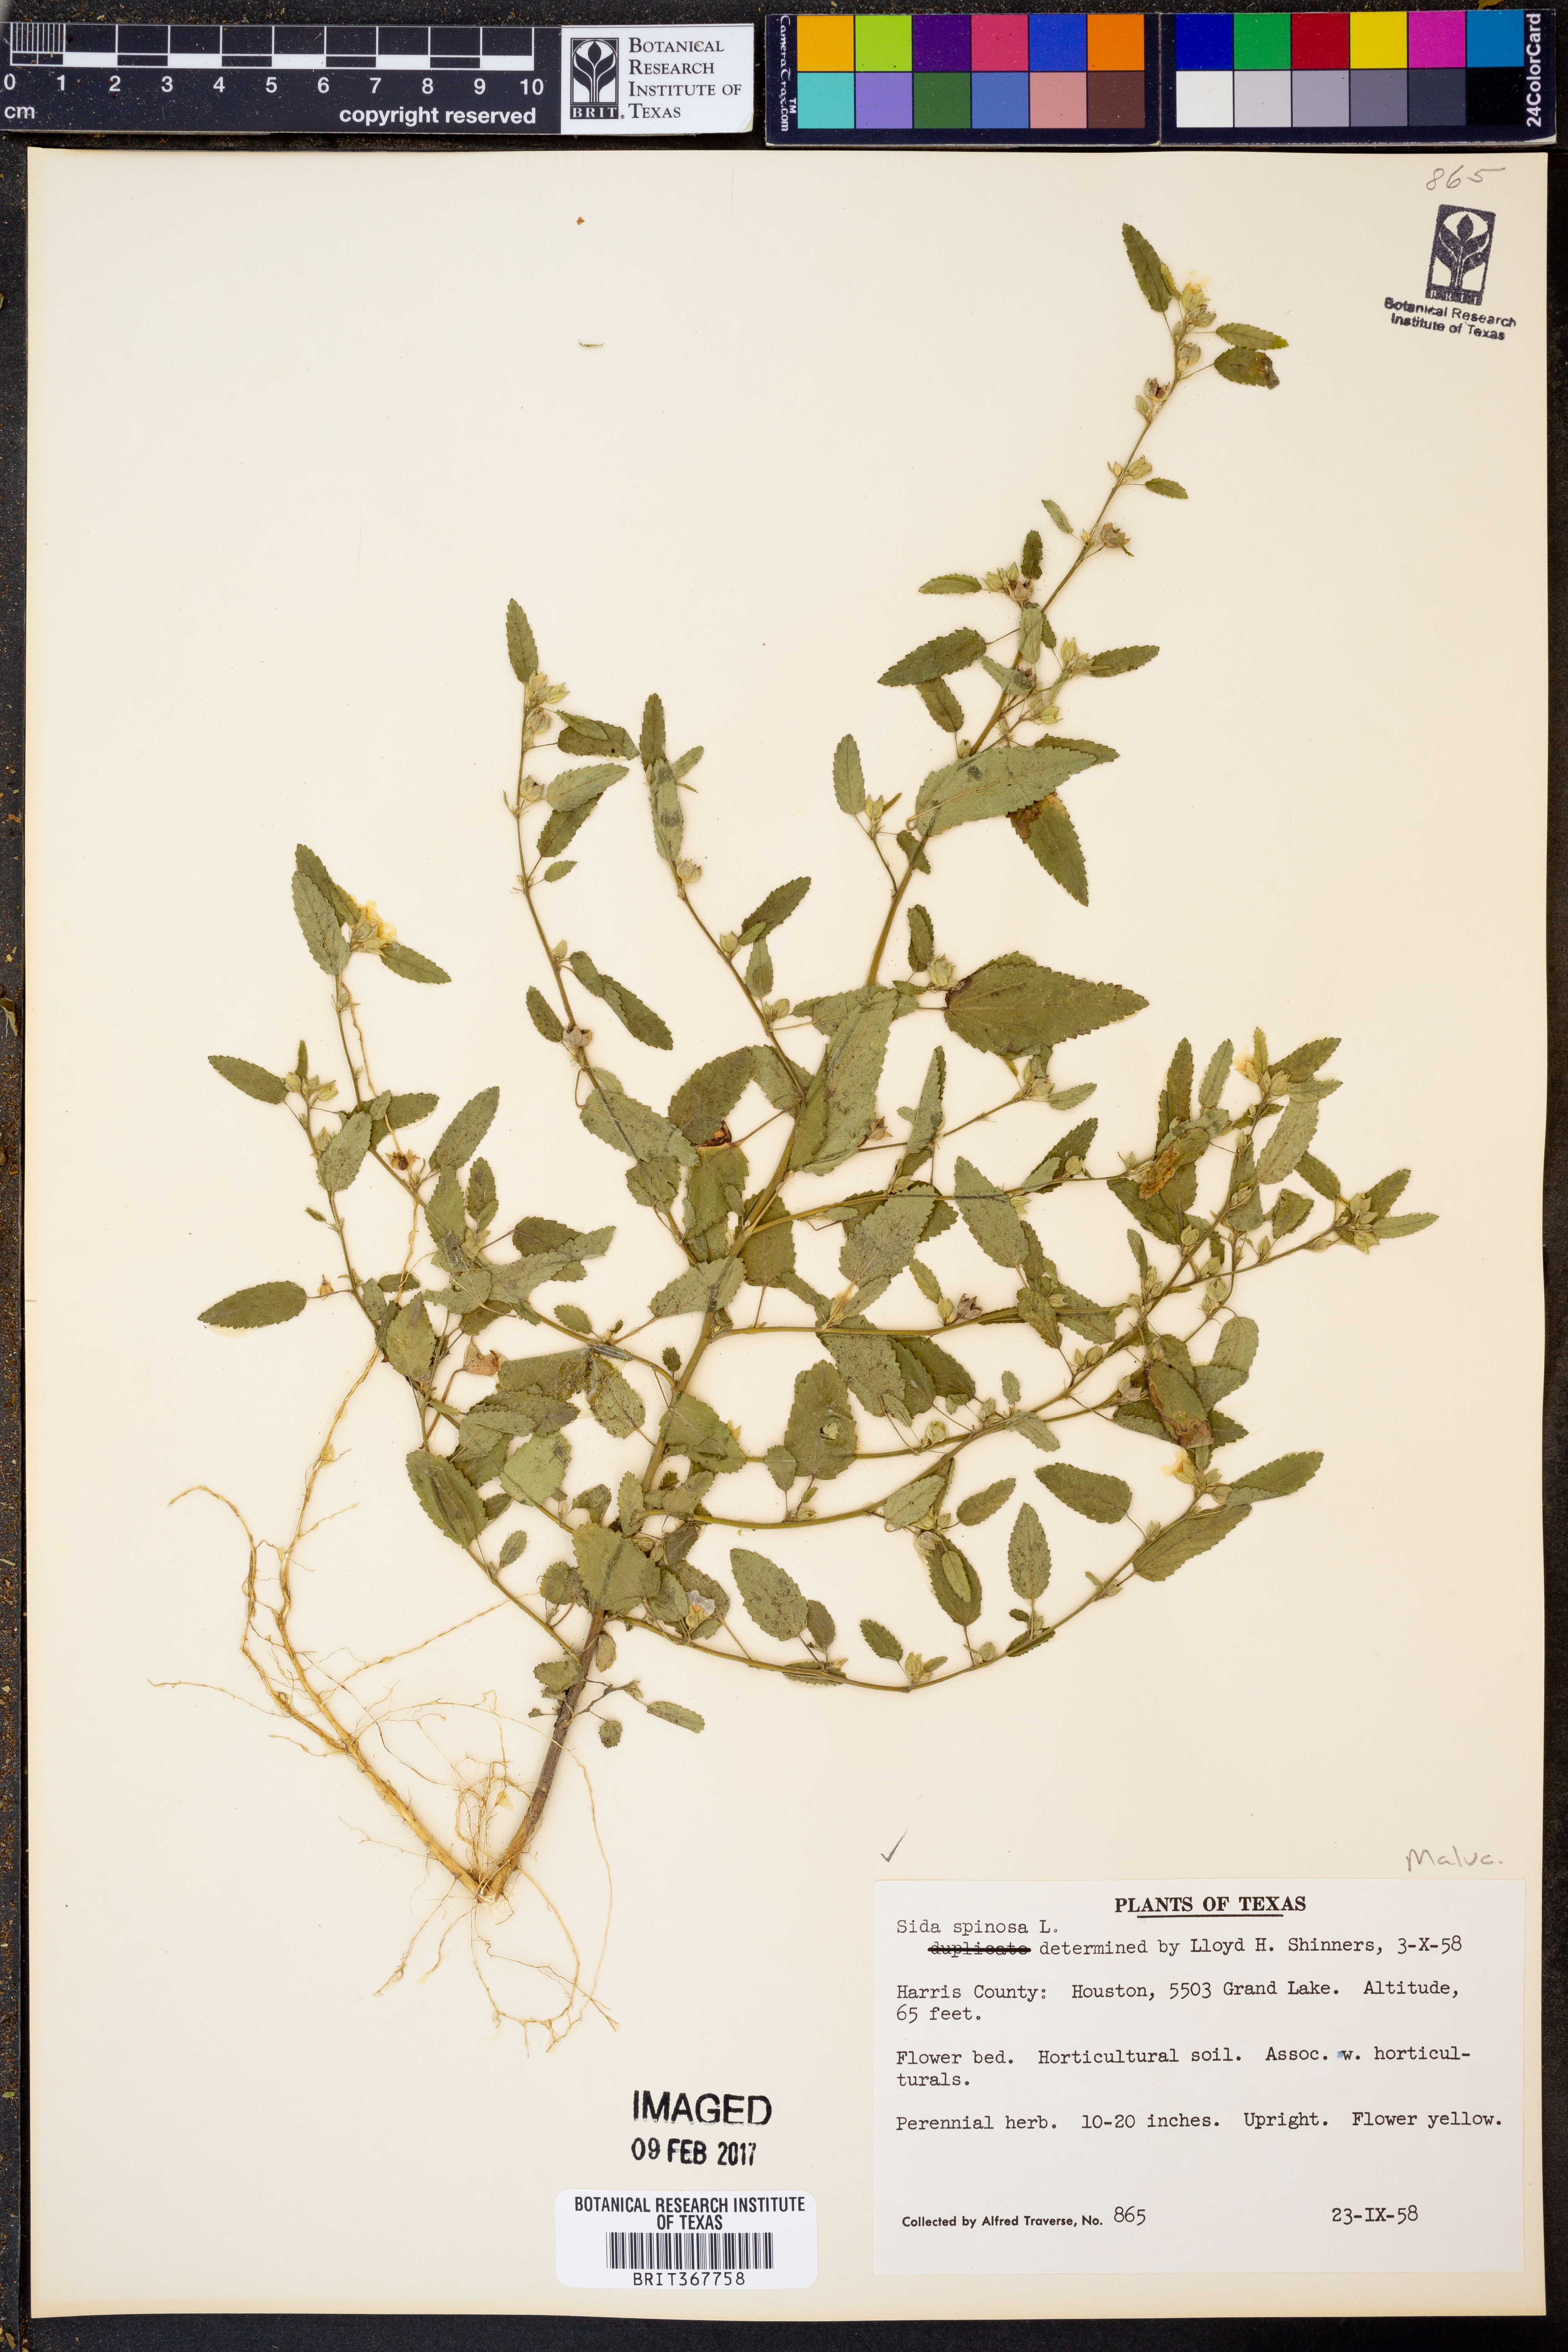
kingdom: Plantae
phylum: Tracheophyta
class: Magnoliopsida
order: Malvales
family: Malvaceae
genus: Sida
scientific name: Sida spinosa
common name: Prickly fanpetals
